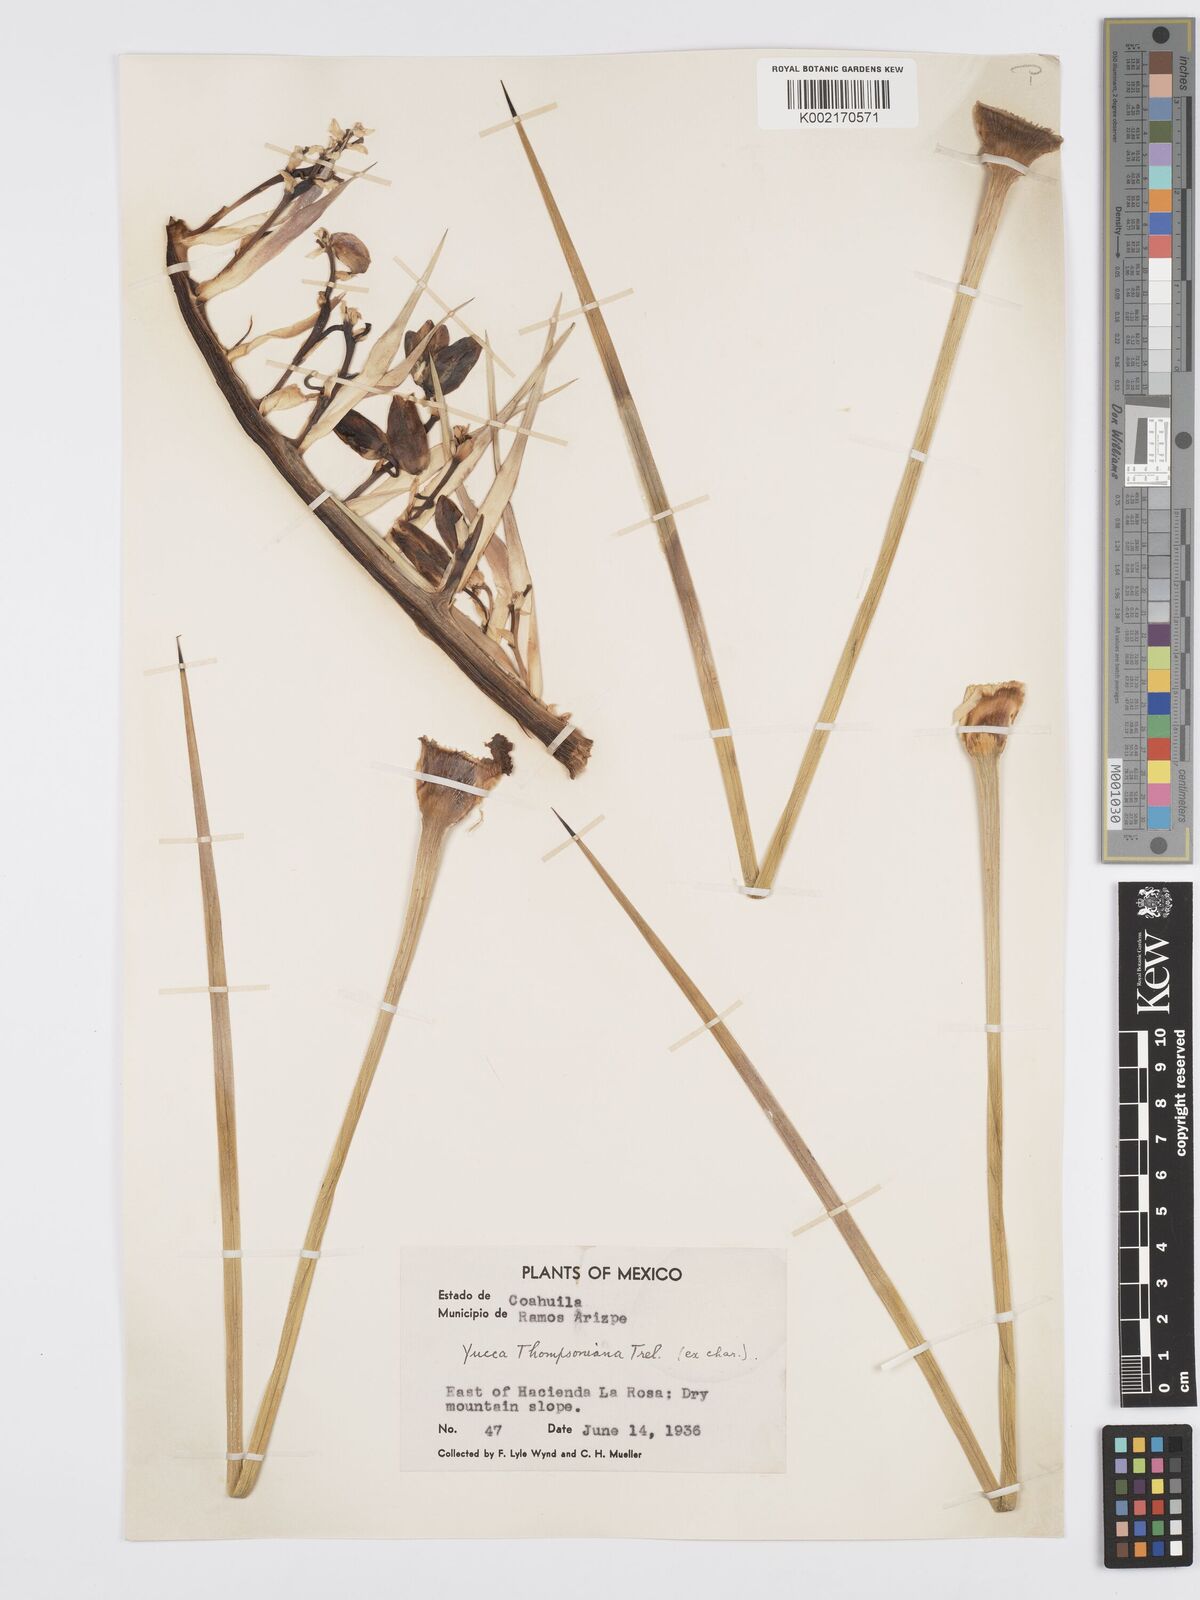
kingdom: Plantae
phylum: Tracheophyta
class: Liliopsida
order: Asparagales
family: Asparagaceae
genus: Yucca
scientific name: Yucca thompsoniana
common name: Trans-pecos yucca
